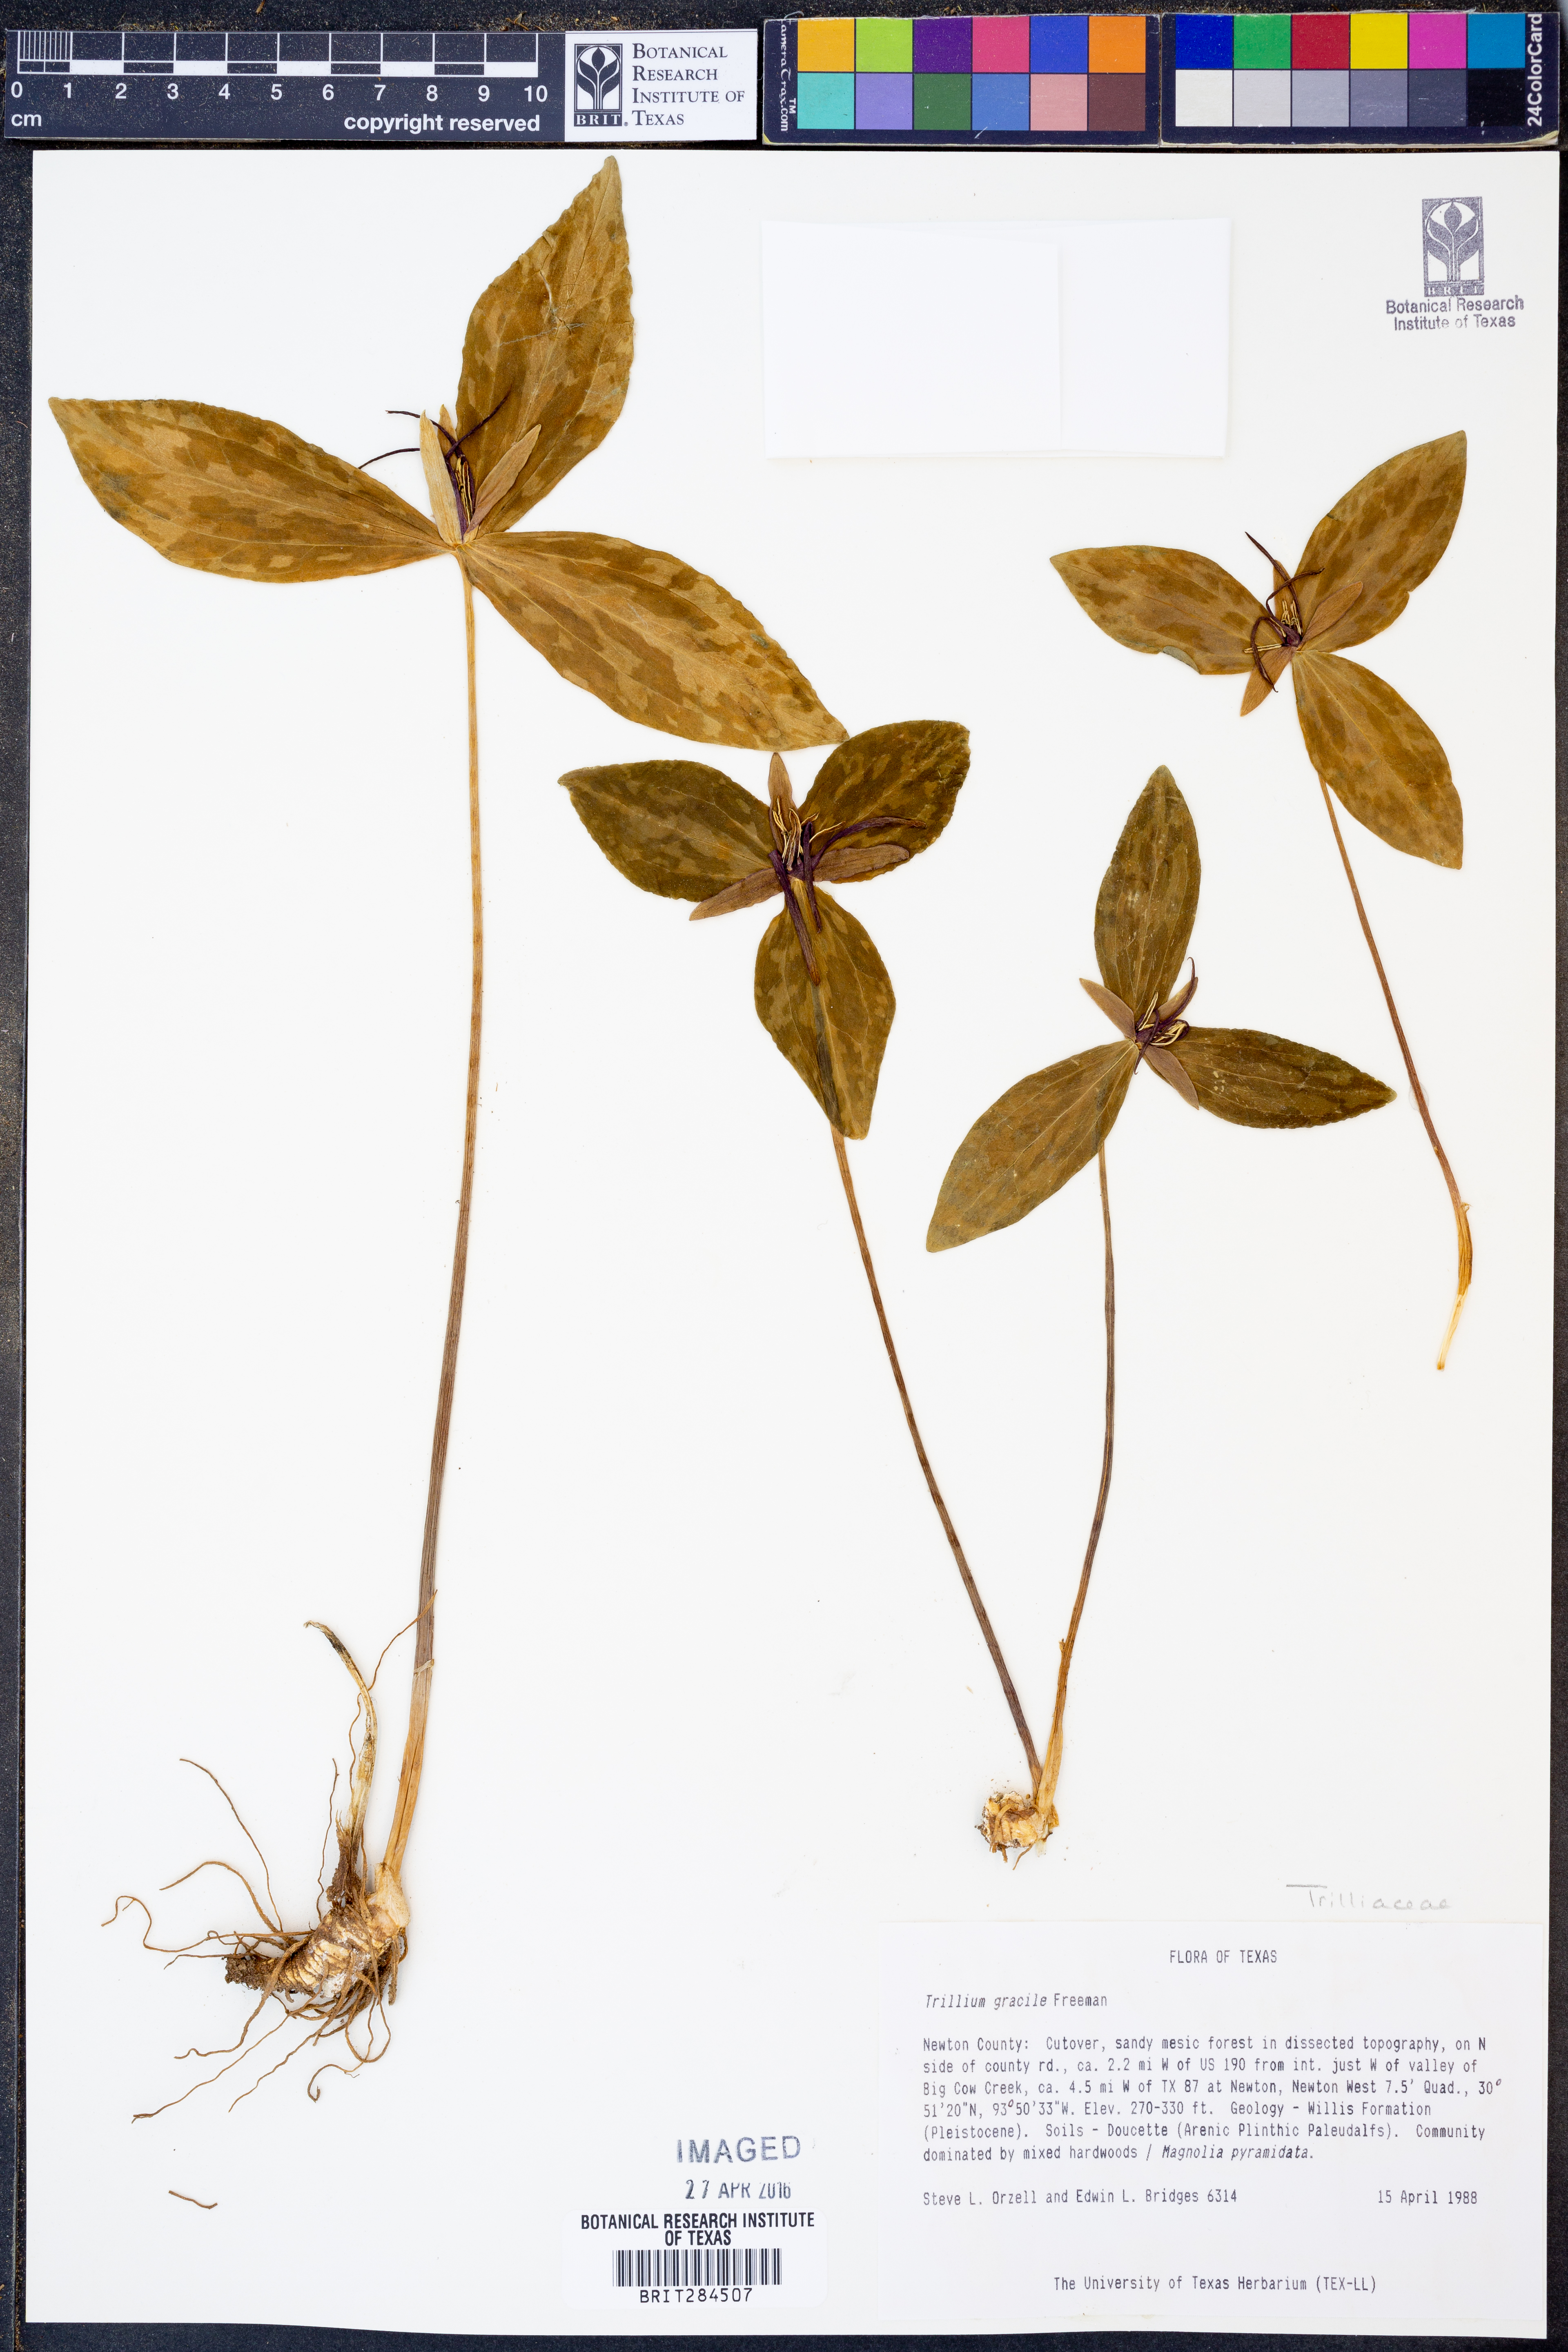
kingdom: Plantae
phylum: Tracheophyta
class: Liliopsida
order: Liliales
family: Melanthiaceae
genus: Trillium
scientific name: Trillium gracile
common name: Graceful trillium
